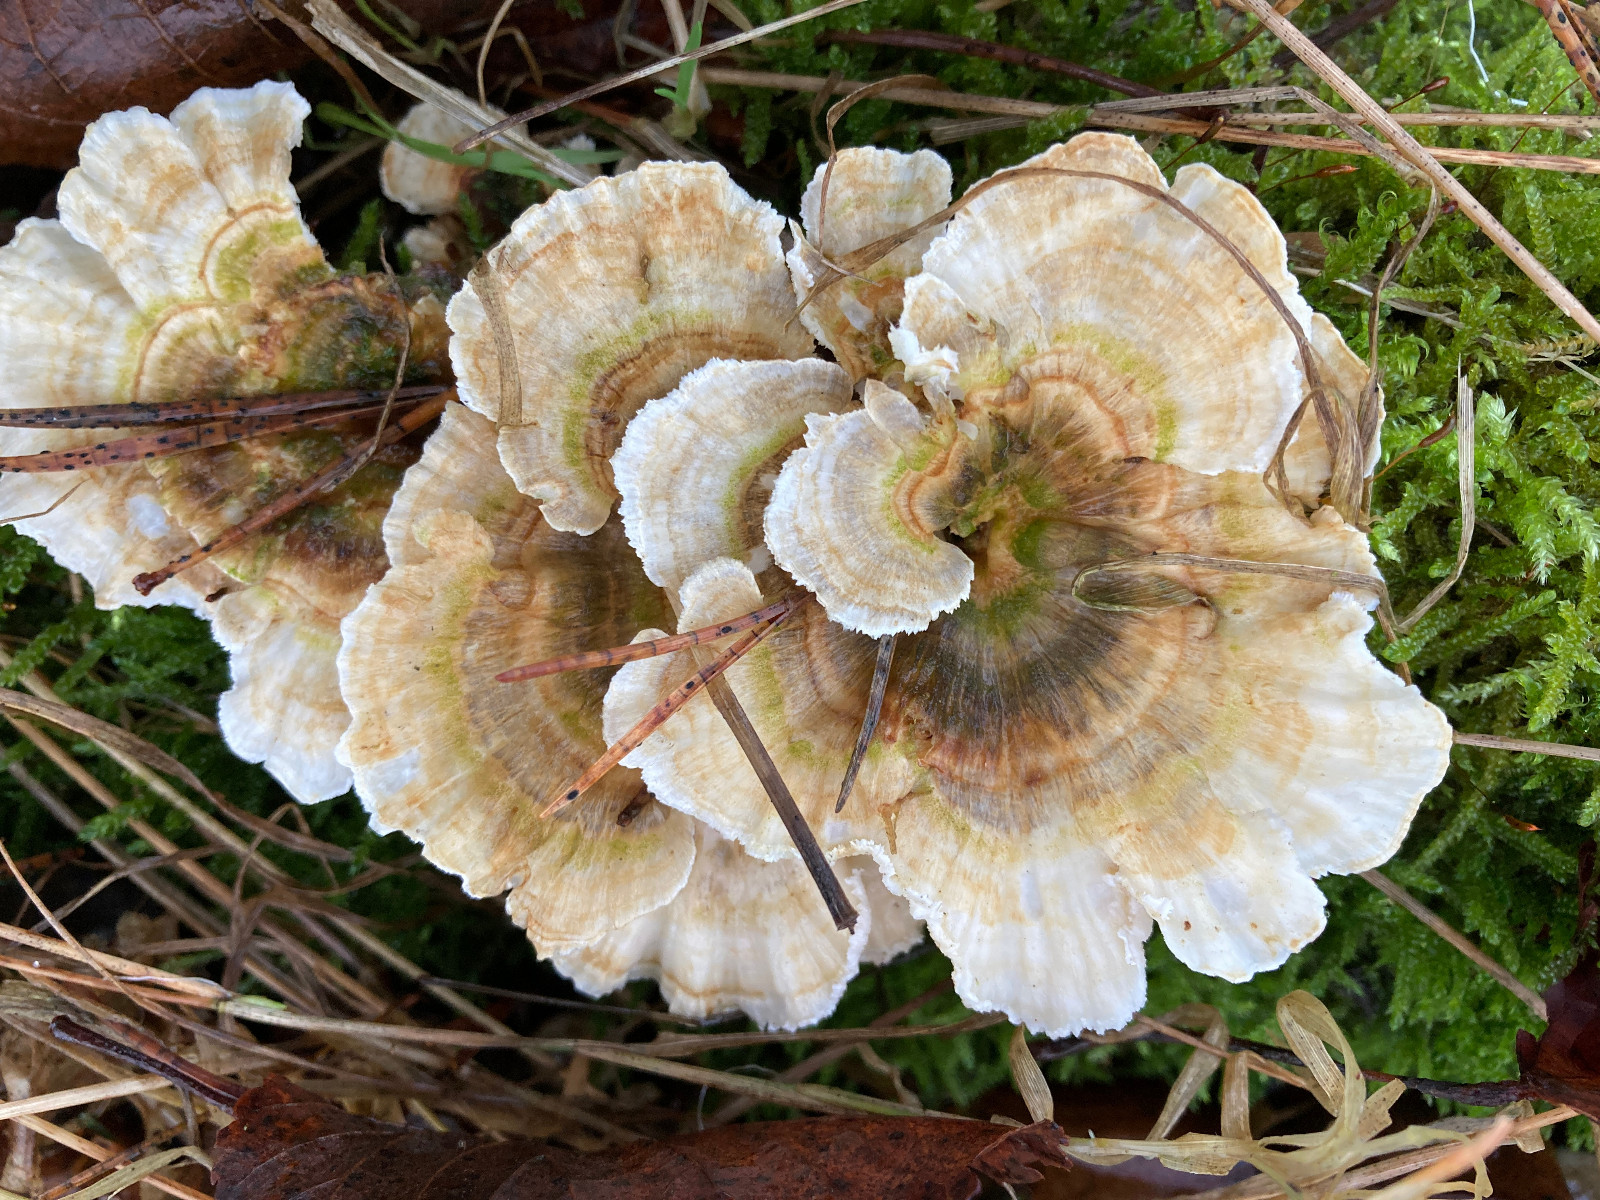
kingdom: Fungi
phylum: Basidiomycota
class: Agaricomycetes
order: Polyporales
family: Polyporaceae
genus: Trametes
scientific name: Trametes ochracea
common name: bæltet læderporesvamp
